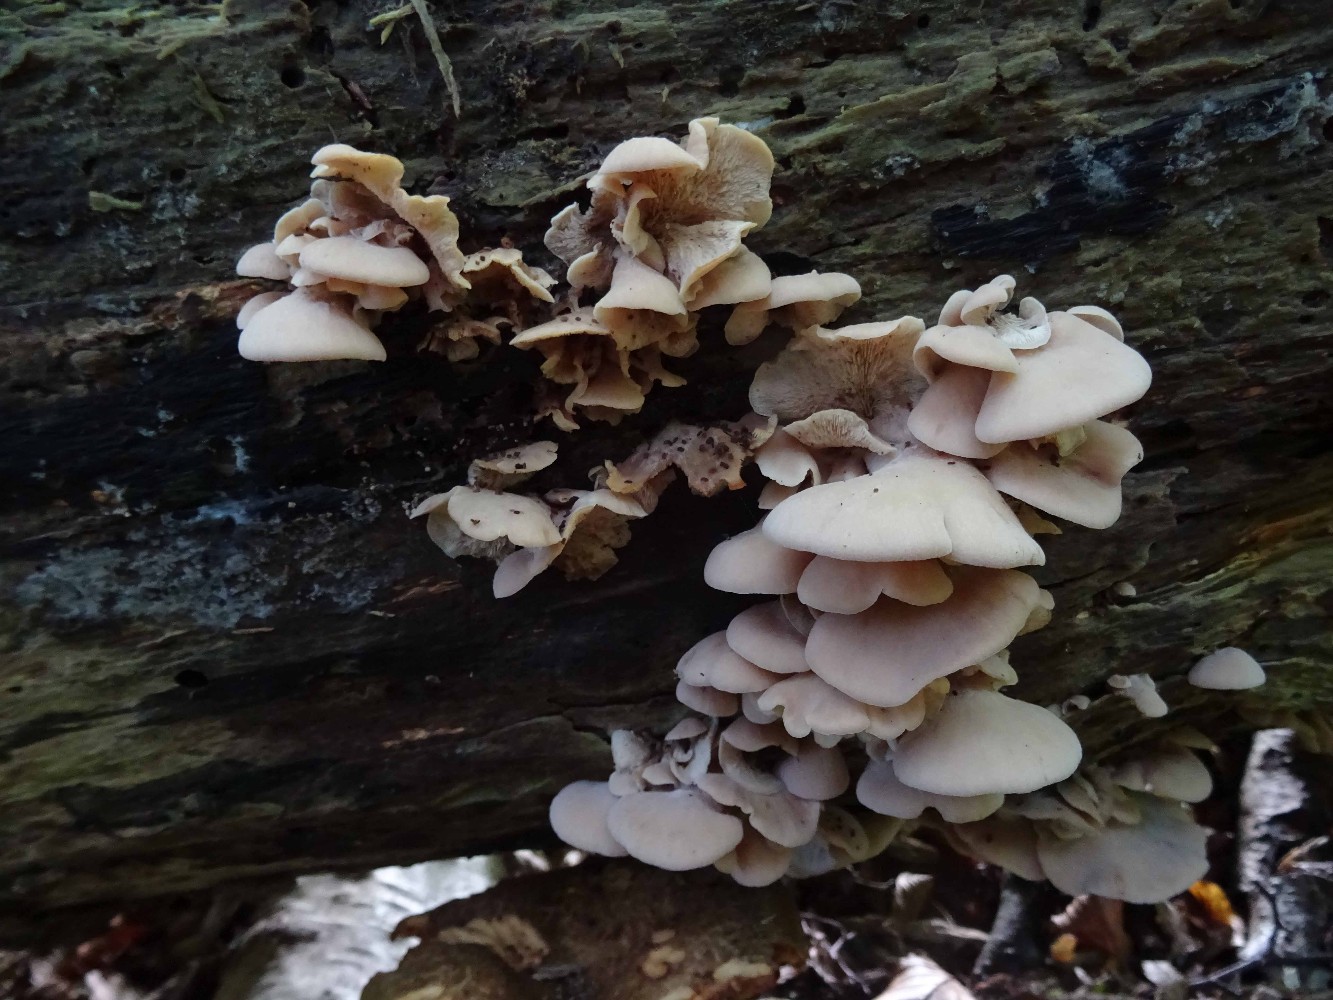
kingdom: Fungi
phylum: Basidiomycota
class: Agaricomycetes
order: Russulales
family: Auriscalpiaceae
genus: Lentinellus
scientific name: Lentinellus ursinus
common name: børstehåret savbladhat
